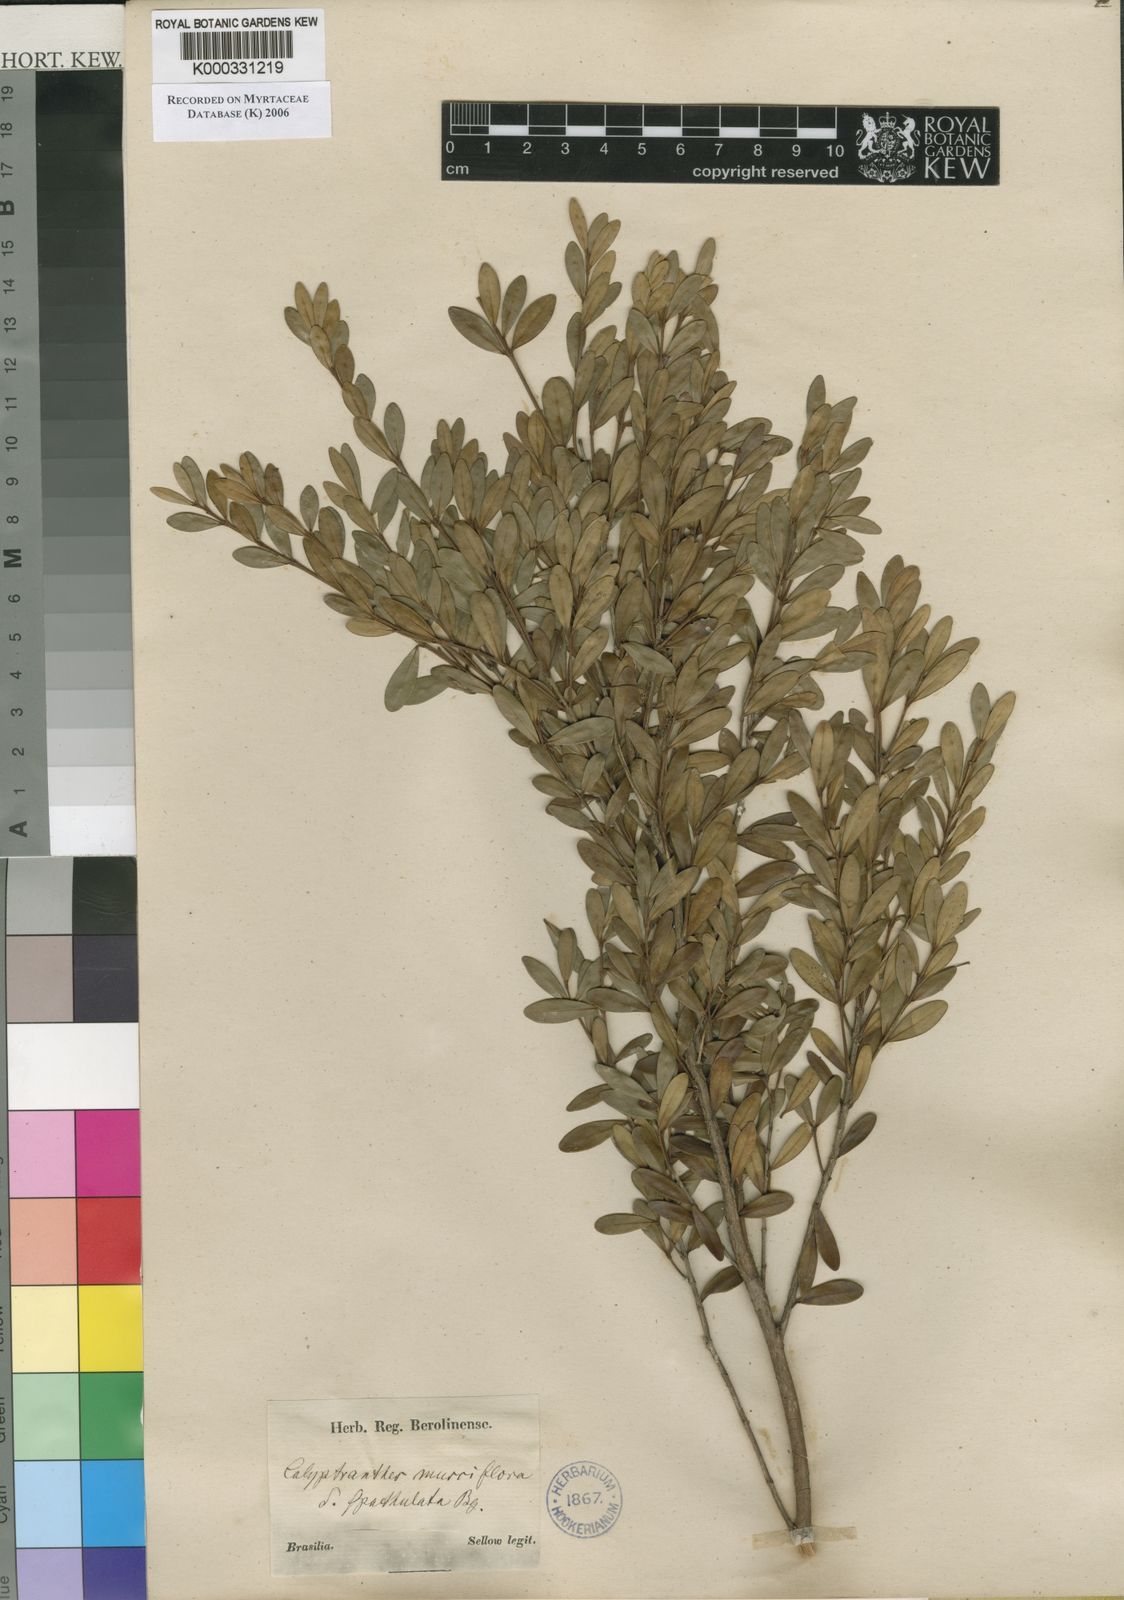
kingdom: Plantae
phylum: Tracheophyta
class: Magnoliopsida
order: Myrtales
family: Myrtaceae
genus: Myrcia
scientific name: Myrcia grammica
